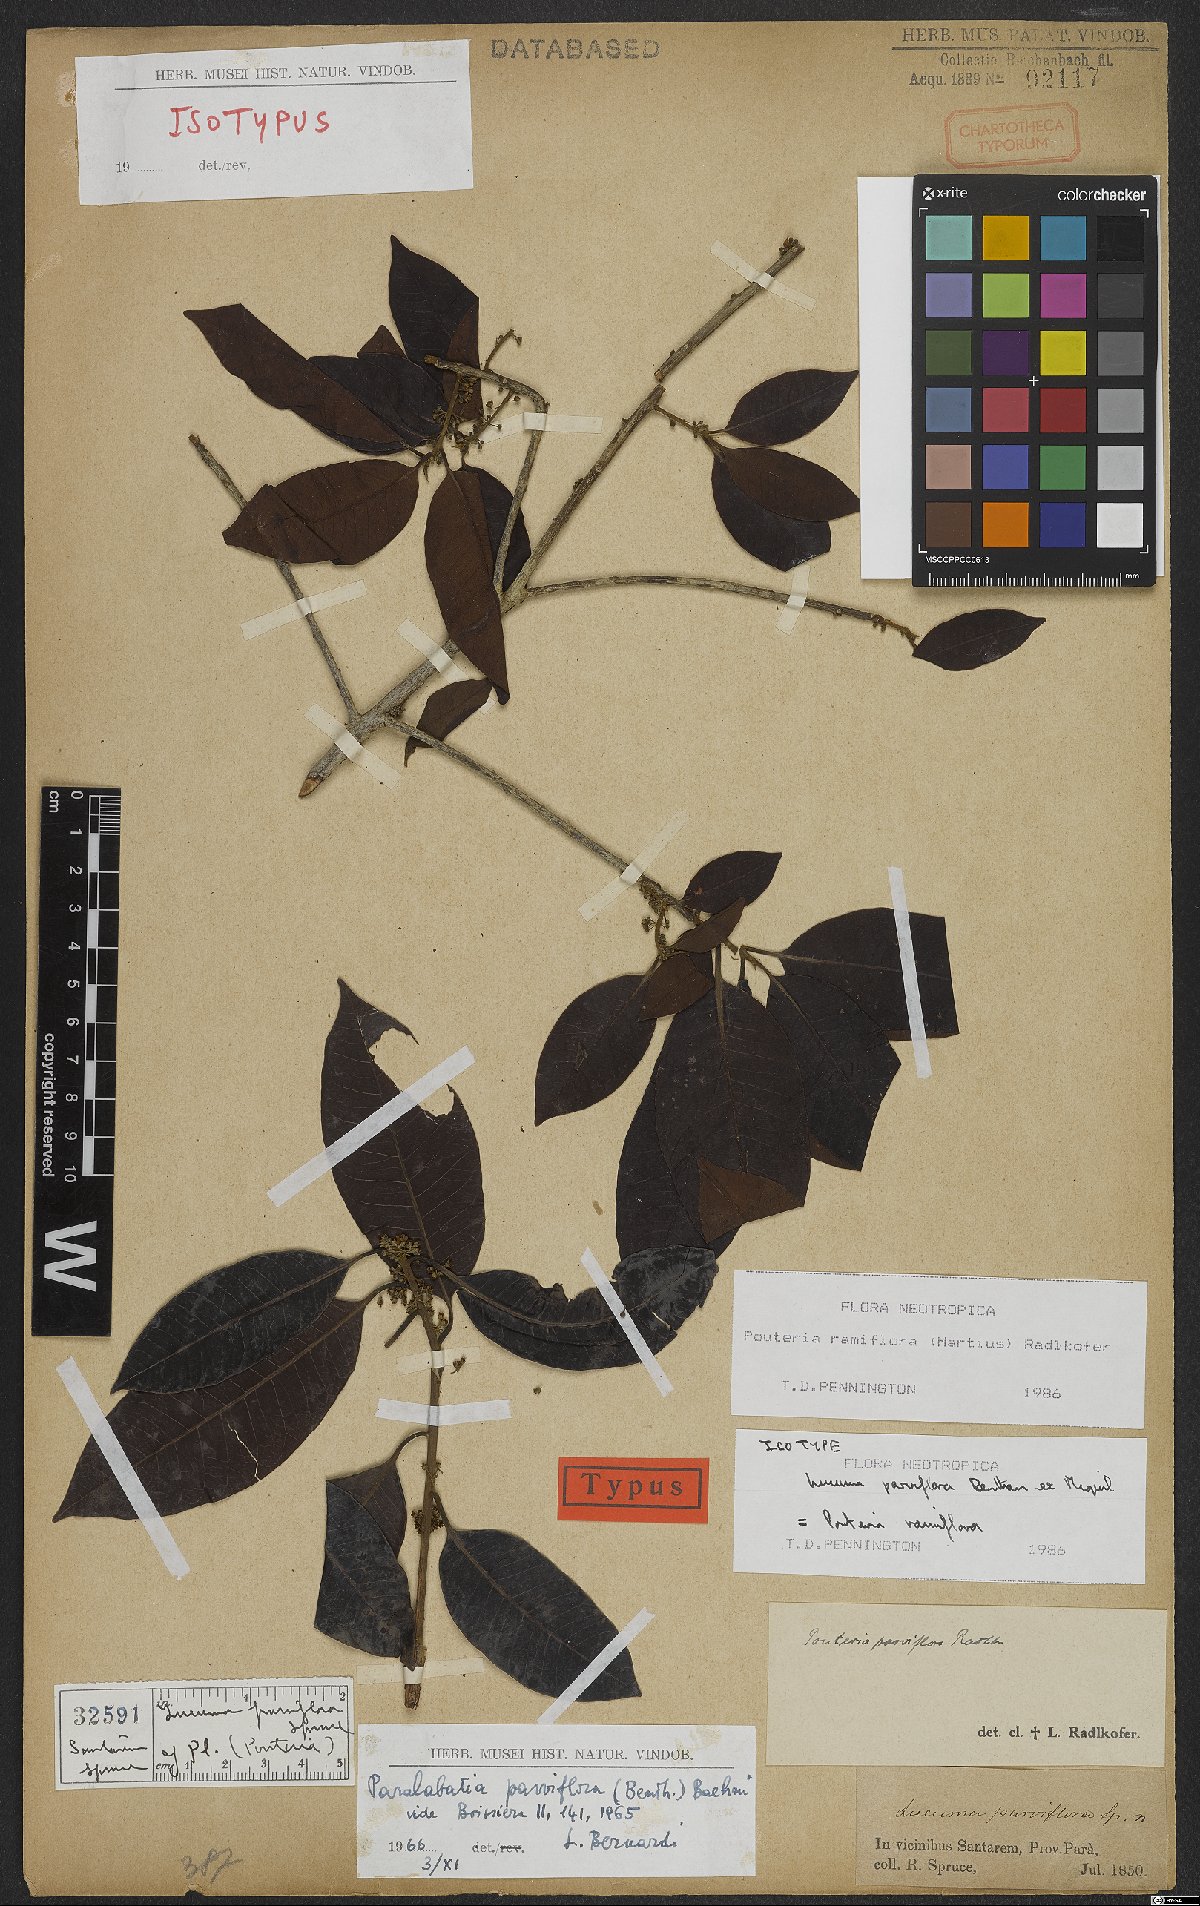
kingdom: Plantae
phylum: Tracheophyta
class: Magnoliopsida
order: Ericales
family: Sapotaceae
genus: Pouteria
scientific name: Pouteria ramiflora
